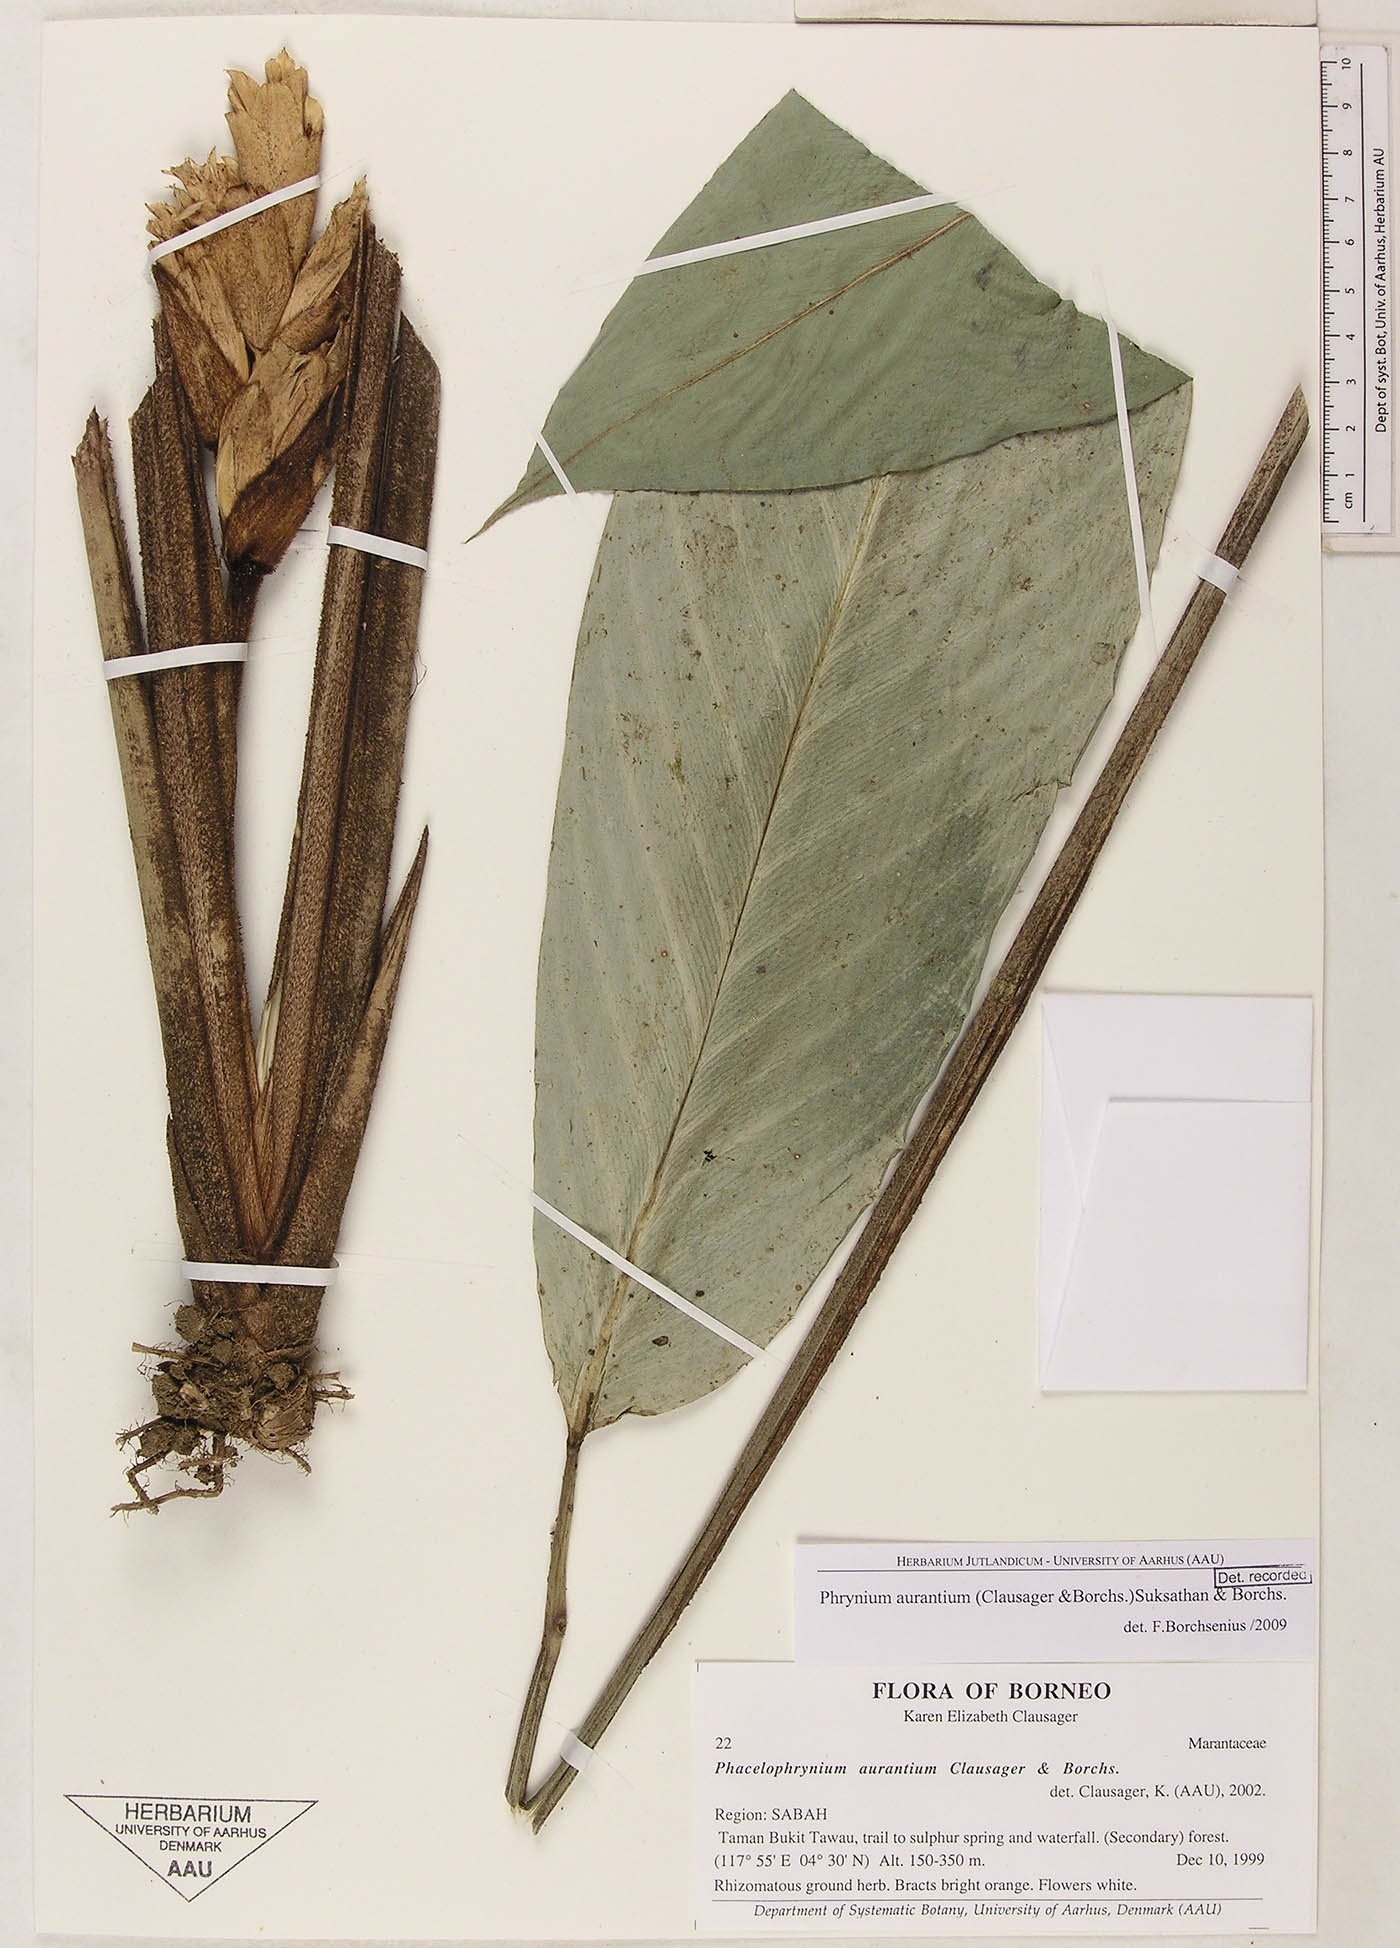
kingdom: Plantae
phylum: Tracheophyta
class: Liliopsida
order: Zingiberales
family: Marantaceae
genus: Phrynium
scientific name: Phrynium aurantium
